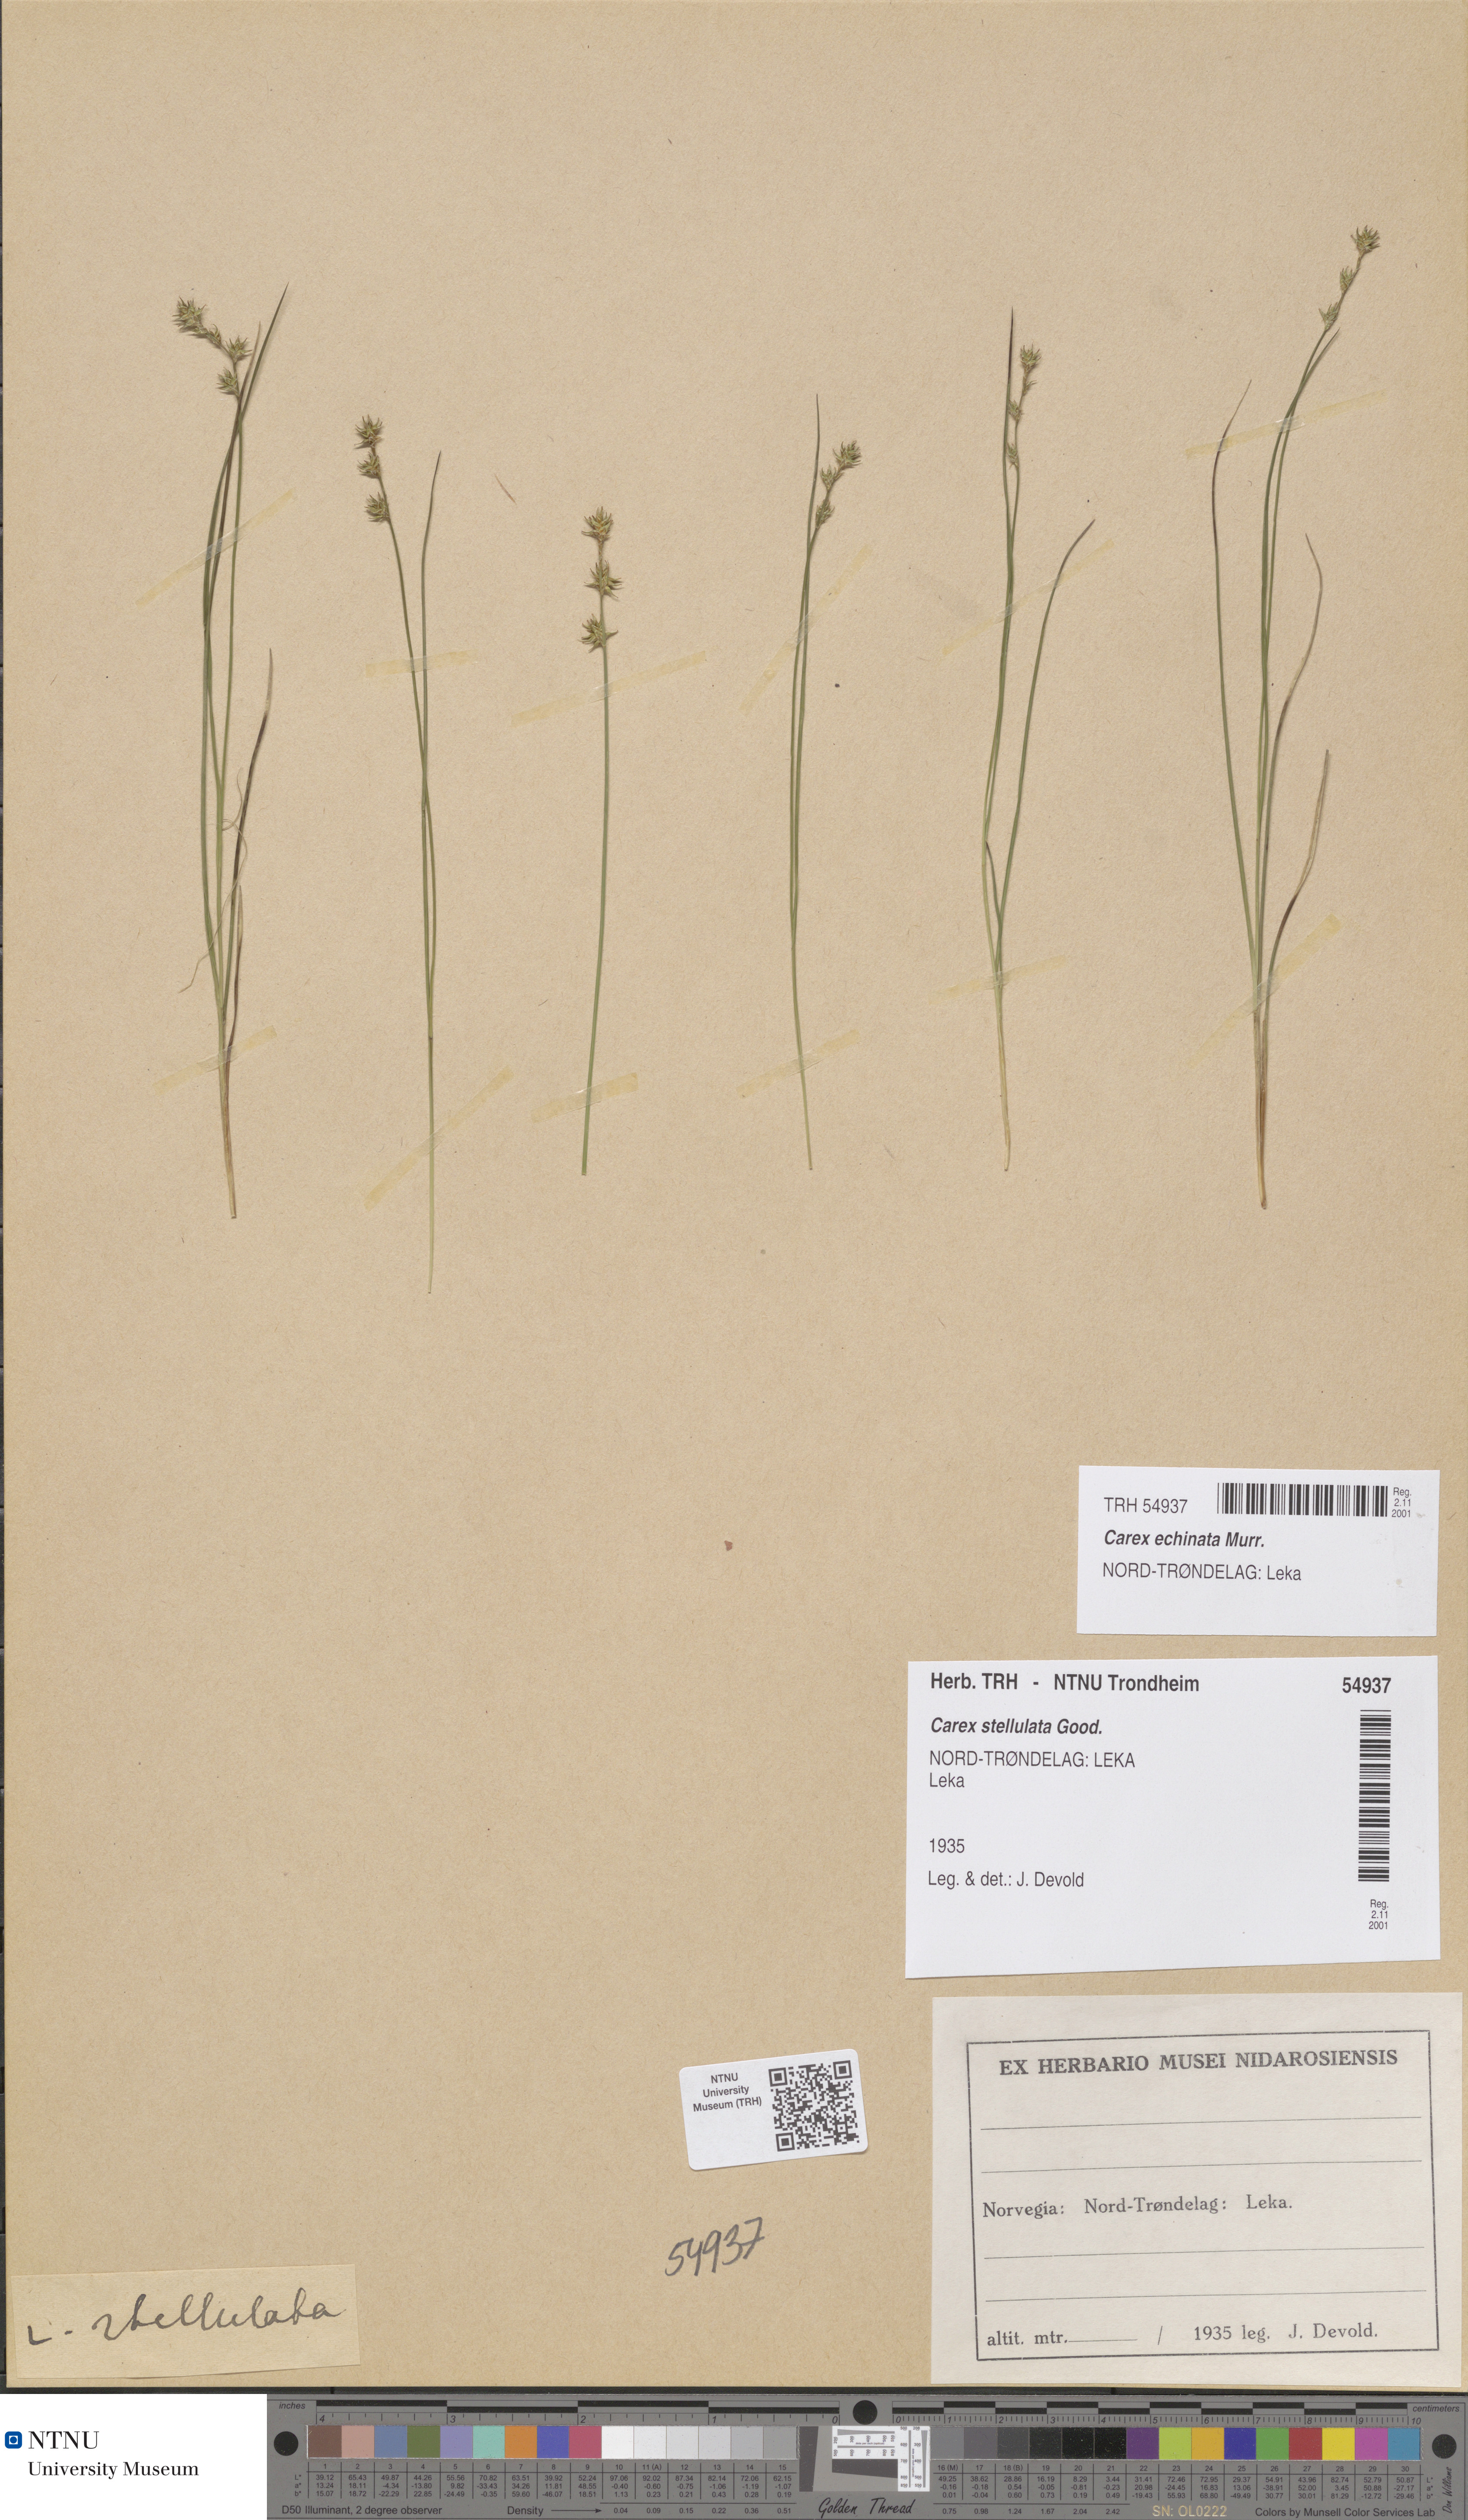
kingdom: Plantae
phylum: Tracheophyta
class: Liliopsida
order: Poales
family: Cyperaceae
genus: Carex
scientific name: Carex echinata
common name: Star sedge
